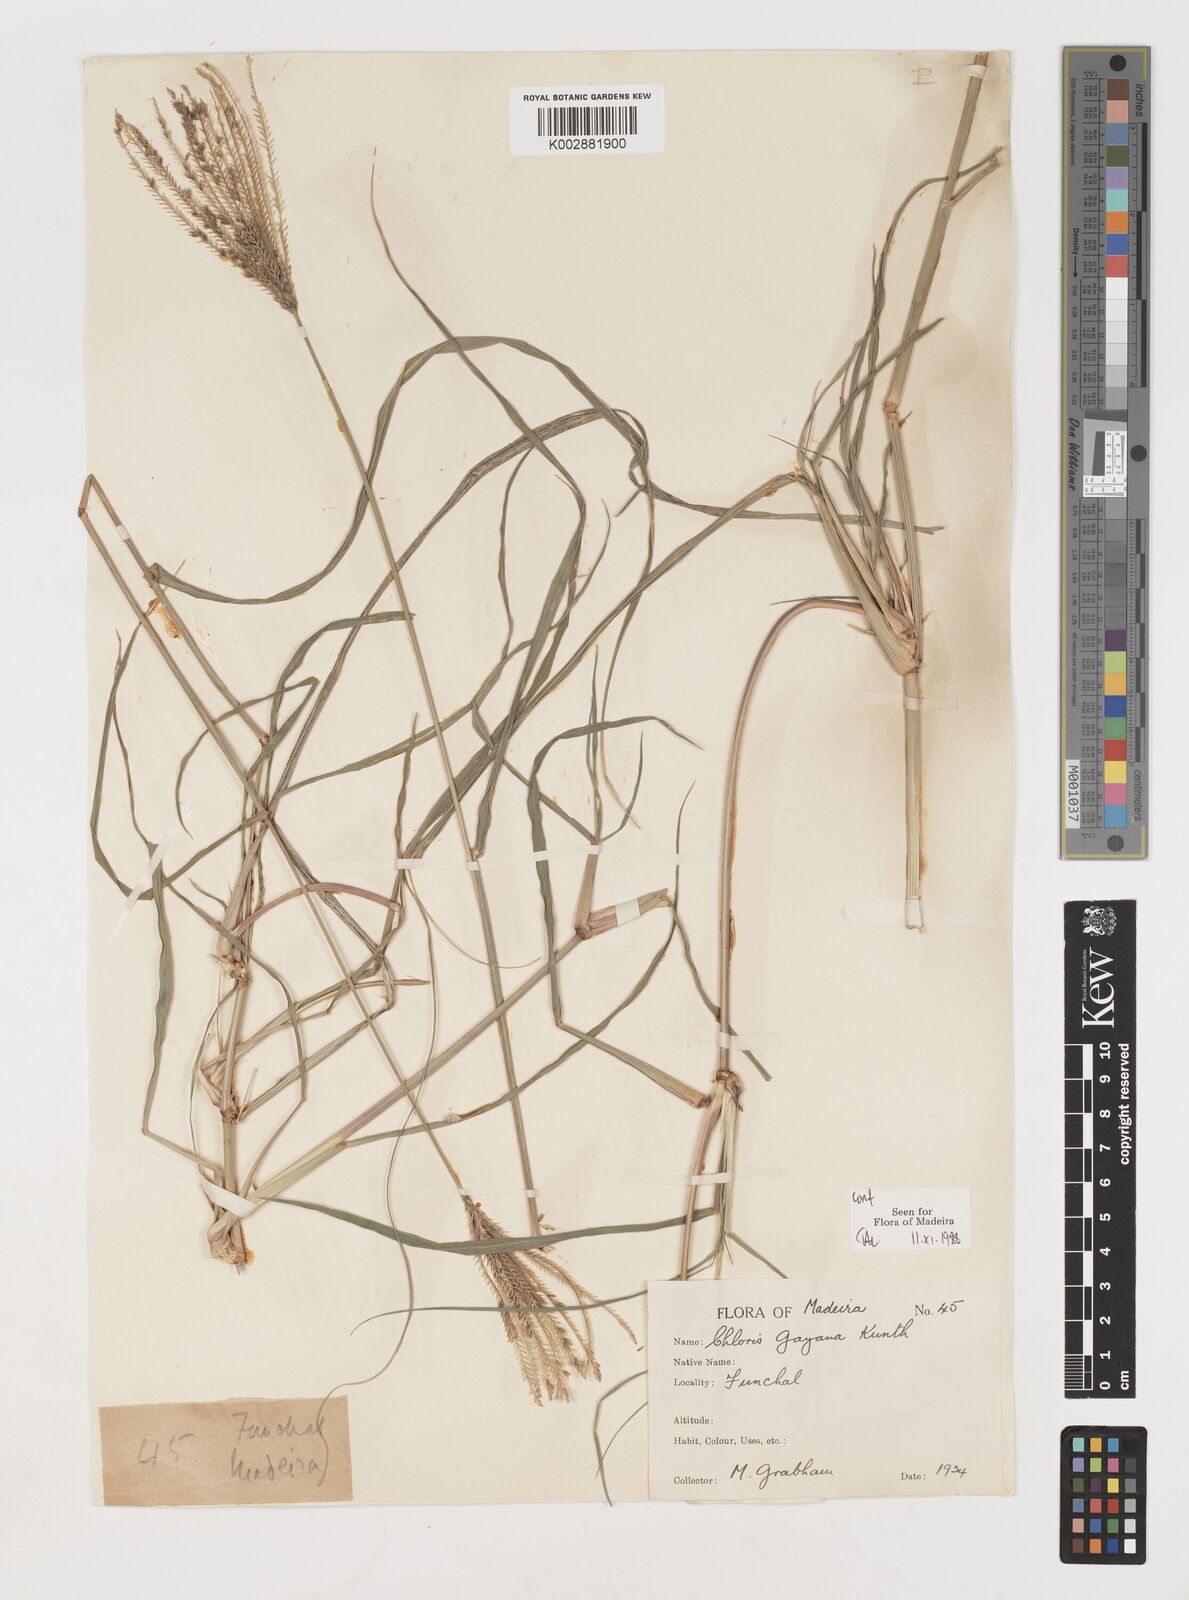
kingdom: Plantae
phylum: Tracheophyta
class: Liliopsida
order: Poales
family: Poaceae
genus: Chloris
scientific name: Chloris gayana
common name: Rhodes grass
